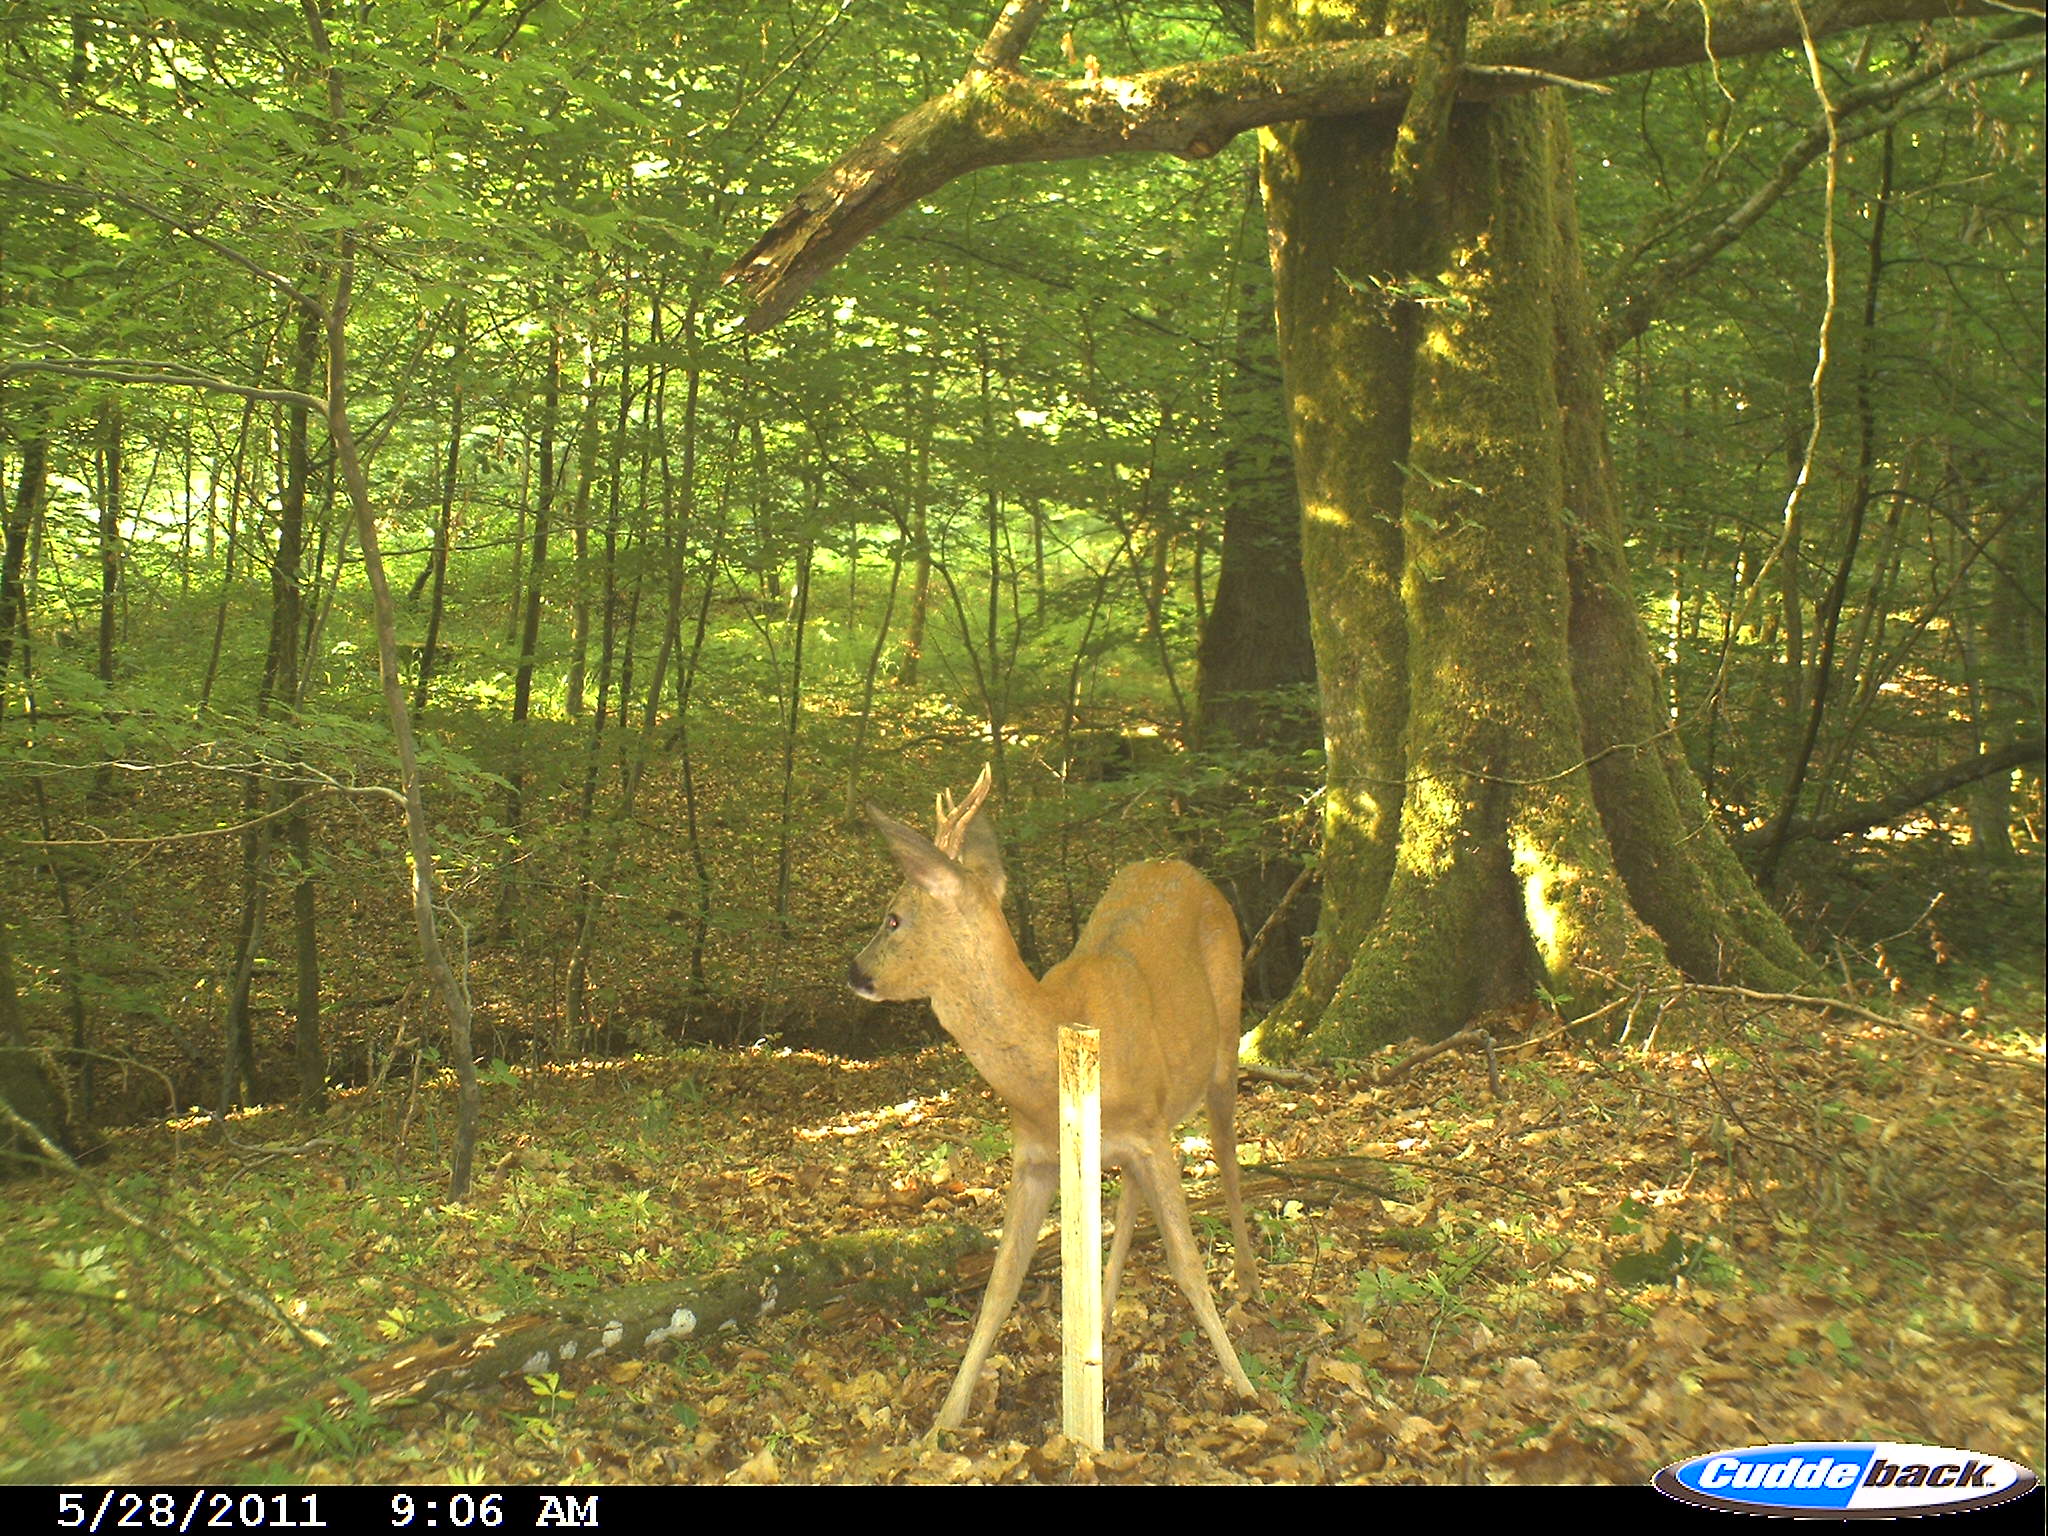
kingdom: Animalia
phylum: Chordata
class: Mammalia
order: Artiodactyla
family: Cervidae
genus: Capreolus
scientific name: Capreolus capreolus
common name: Western roe deer
